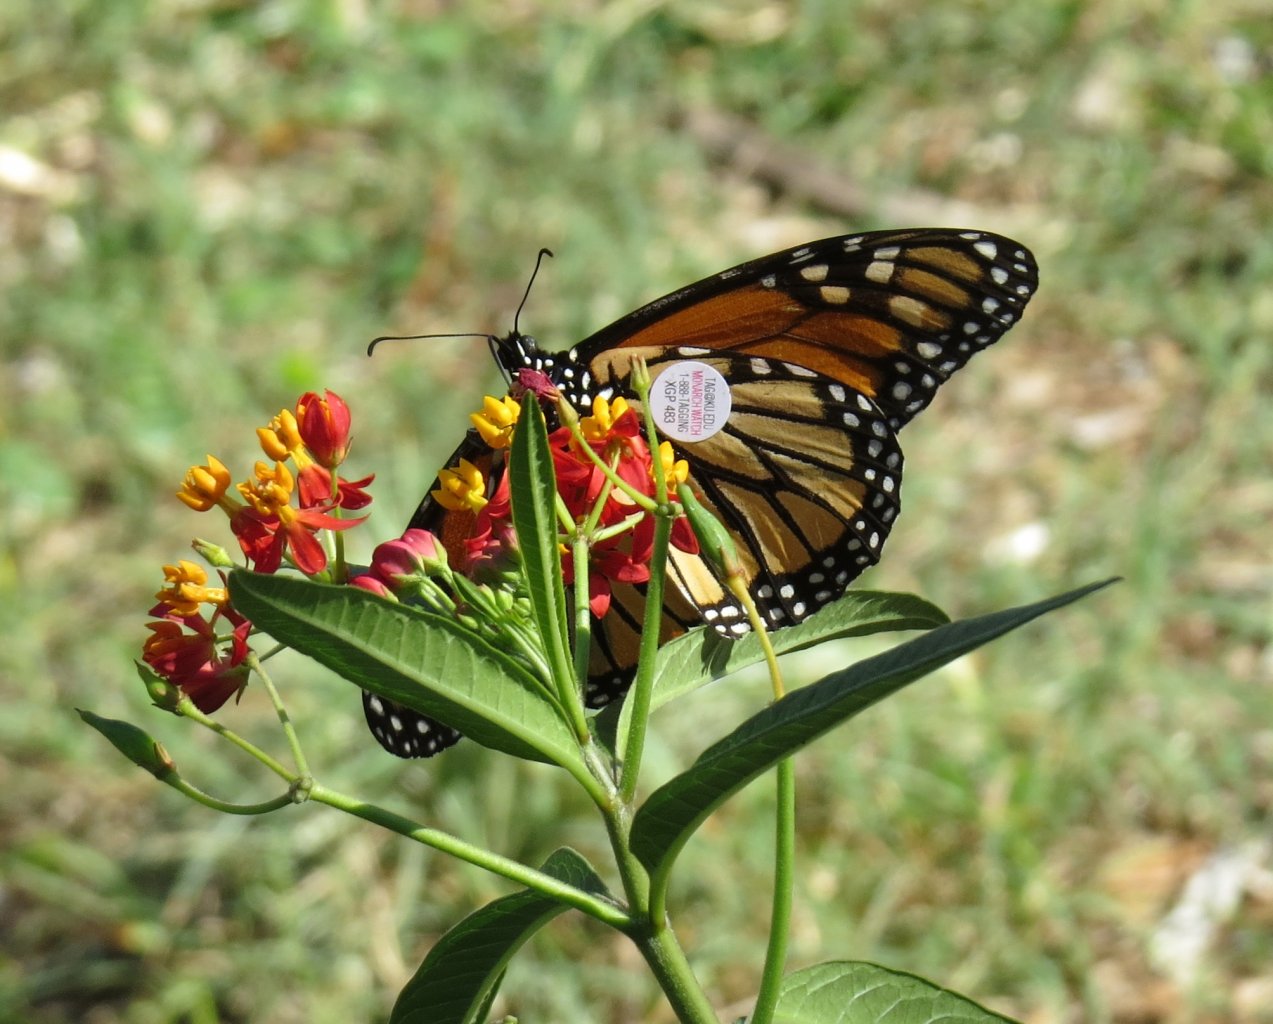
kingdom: Animalia
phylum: Arthropoda
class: Insecta
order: Lepidoptera
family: Nymphalidae
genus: Danaus
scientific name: Danaus plexippus
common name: Monarch
